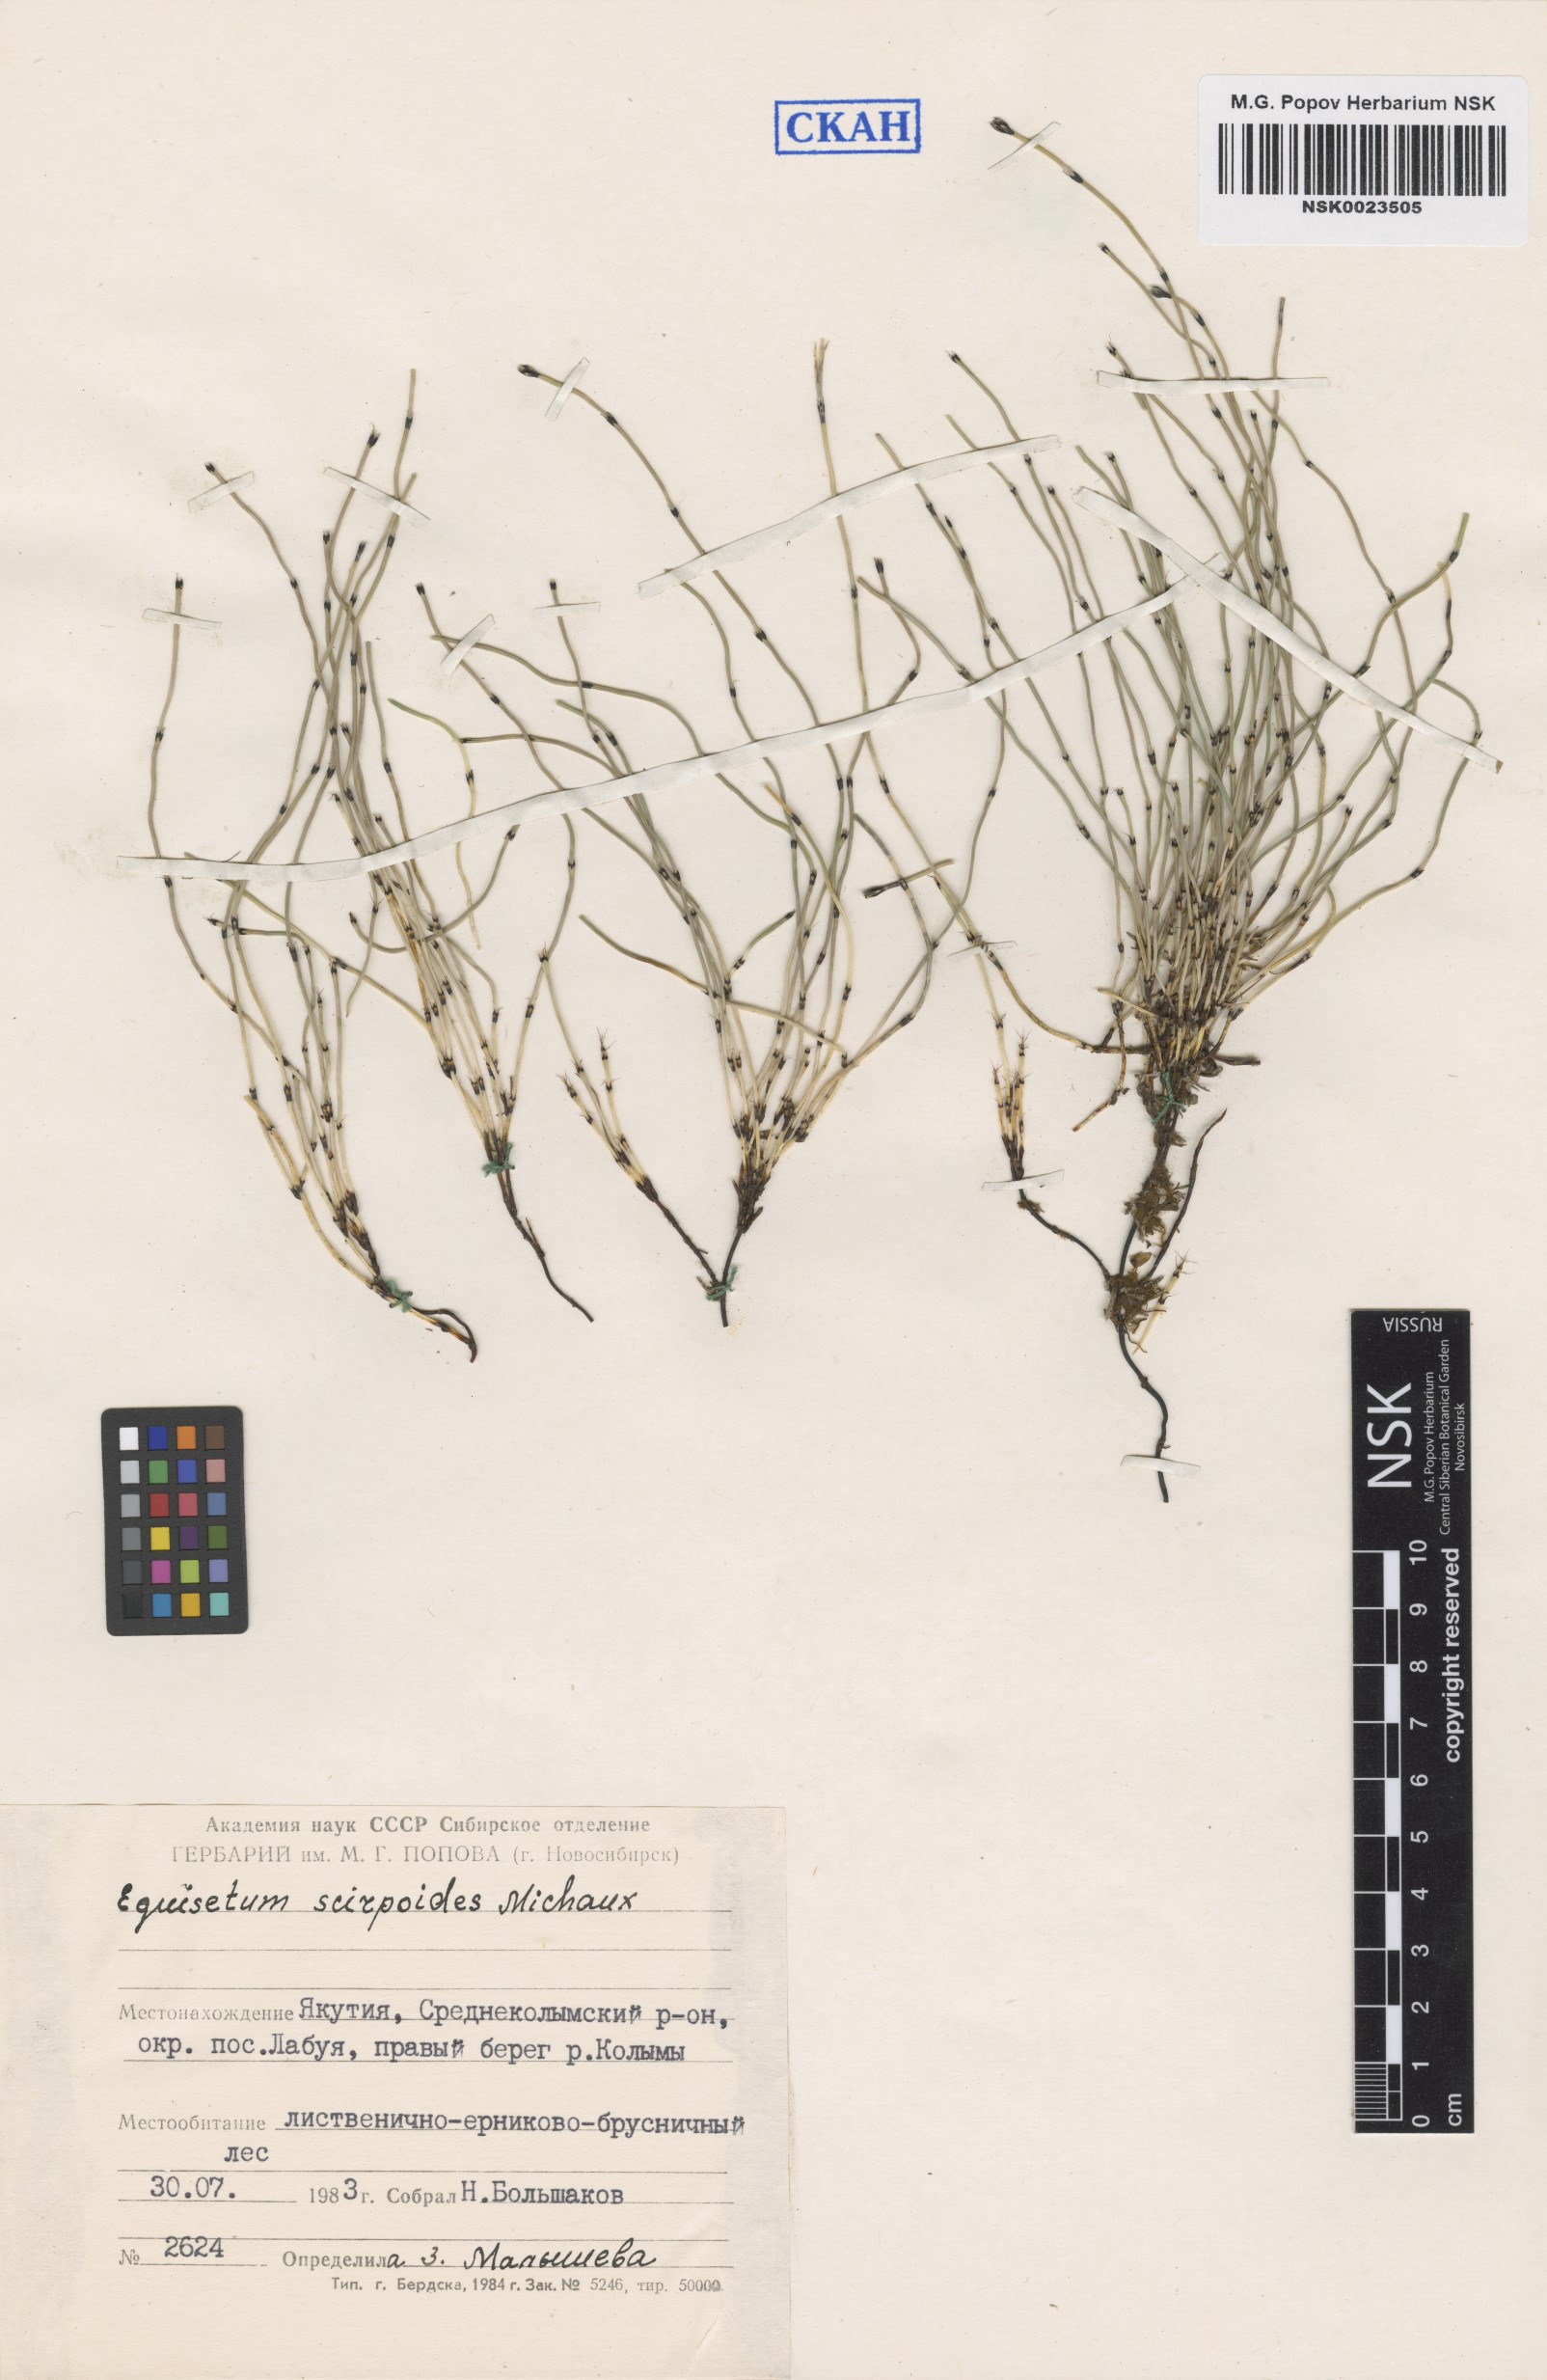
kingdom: Plantae
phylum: Tracheophyta
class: Polypodiopsida
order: Equisetales
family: Equisetaceae
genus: Equisetum
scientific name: Equisetum scirpoides
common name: Delicate horsetail
